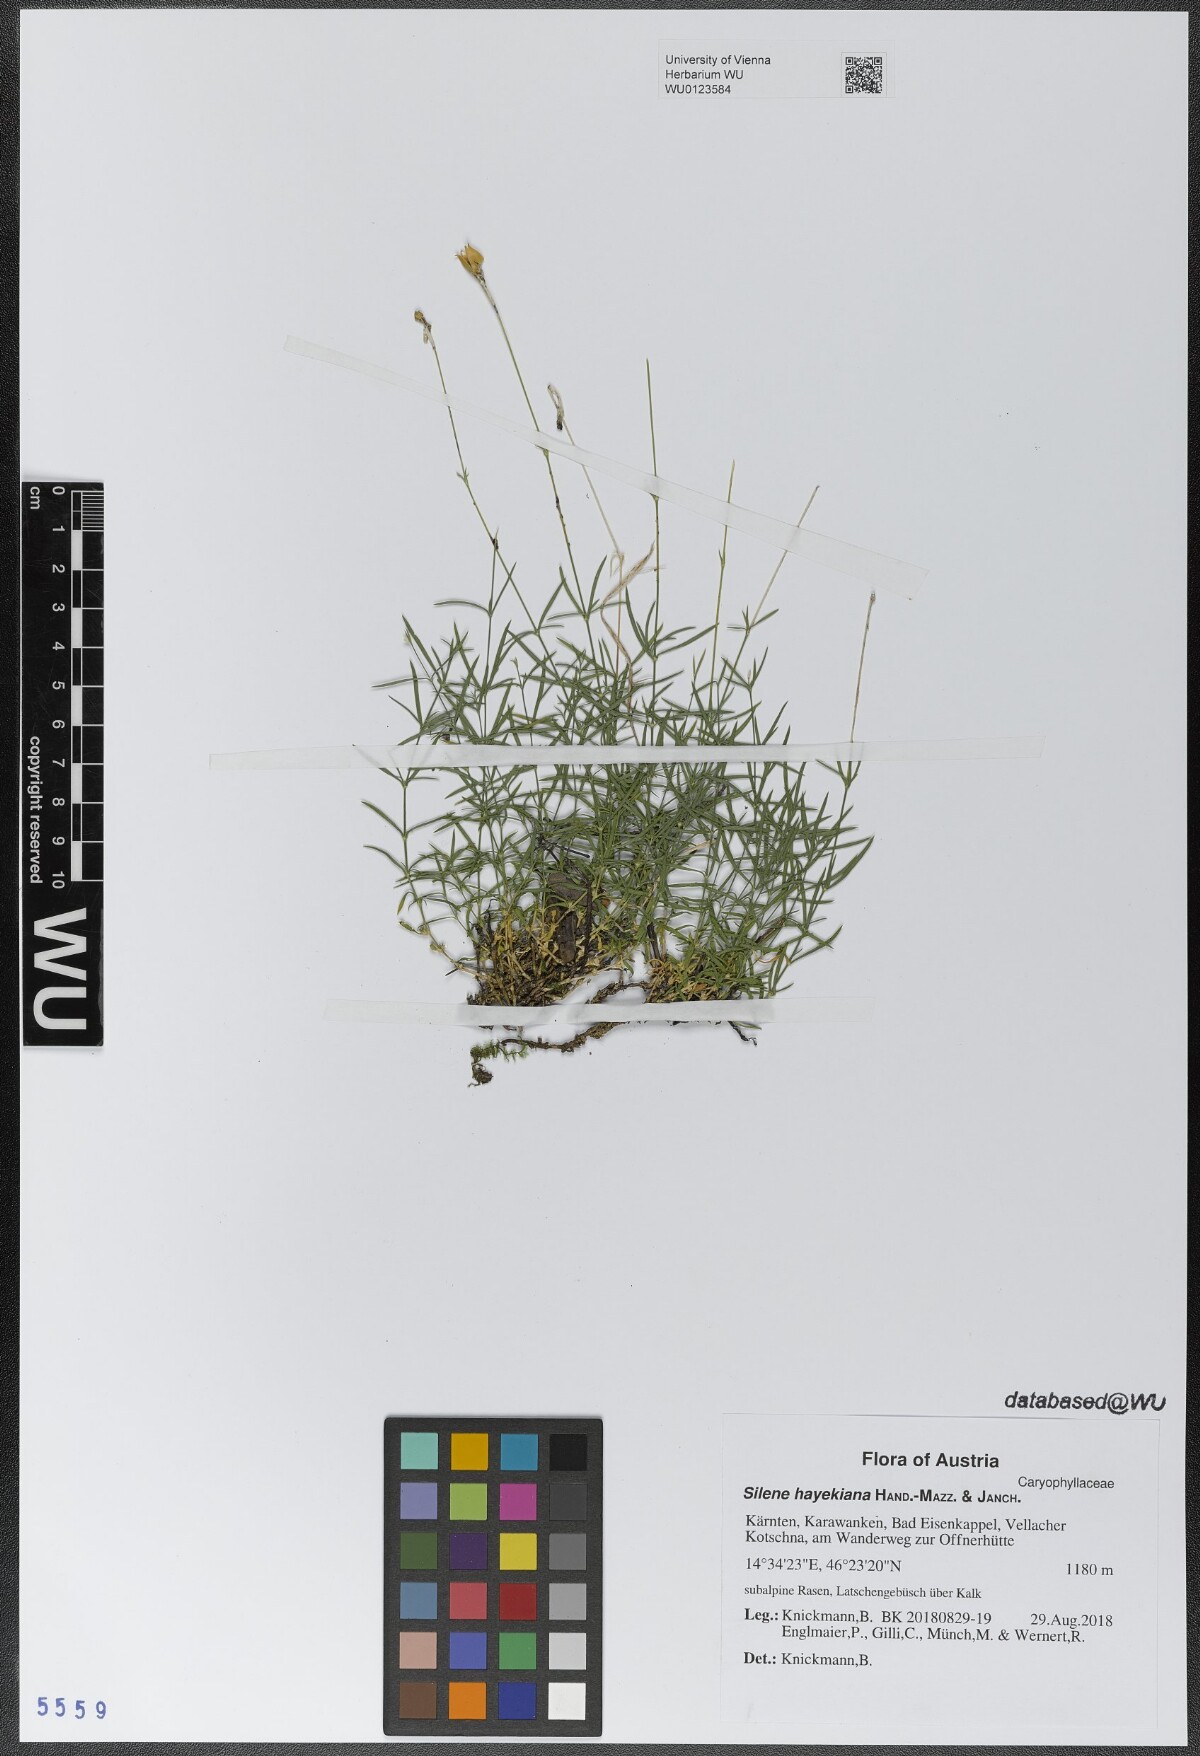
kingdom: Plantae
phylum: Tracheophyta
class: Magnoliopsida
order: Caryophyllales
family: Caryophyllaceae
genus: Silene
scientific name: Silene hayekiana
